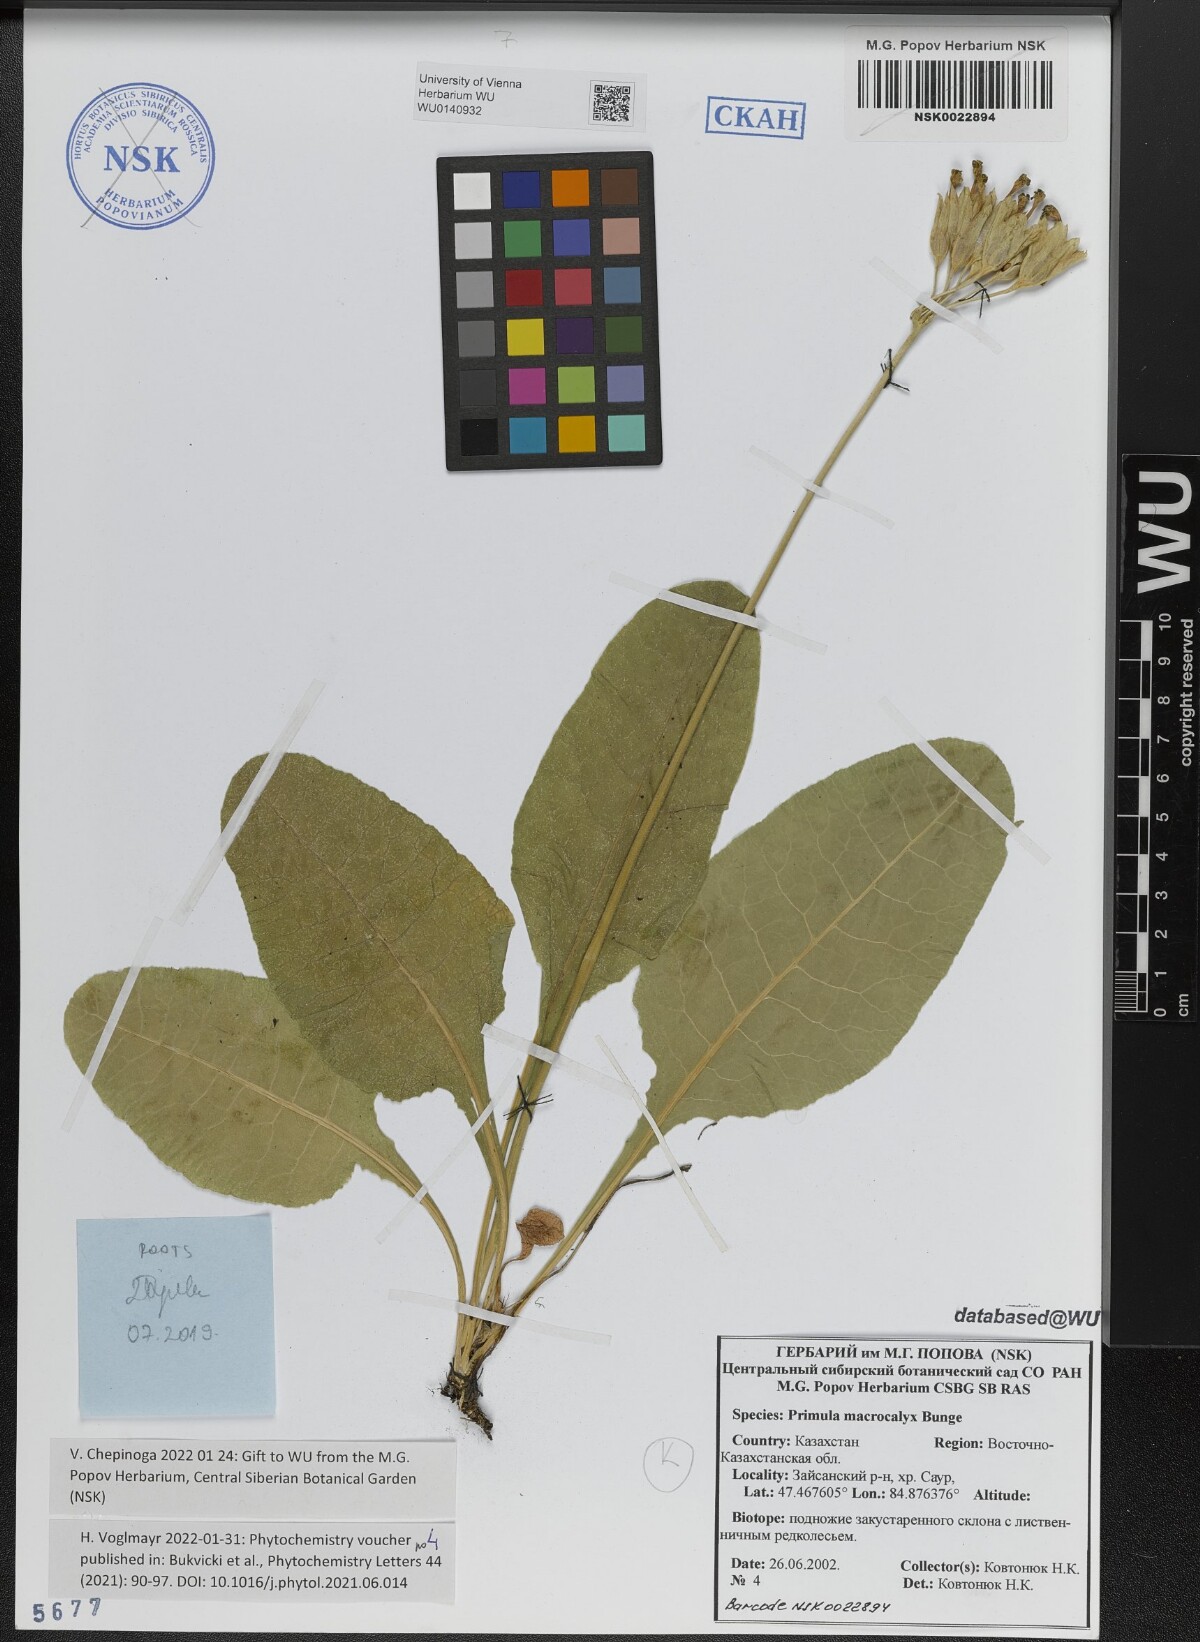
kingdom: Plantae
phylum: Tracheophyta
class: Magnoliopsida
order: Ericales
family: Primulaceae
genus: Primula
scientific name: Primula veris
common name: Cowslip
